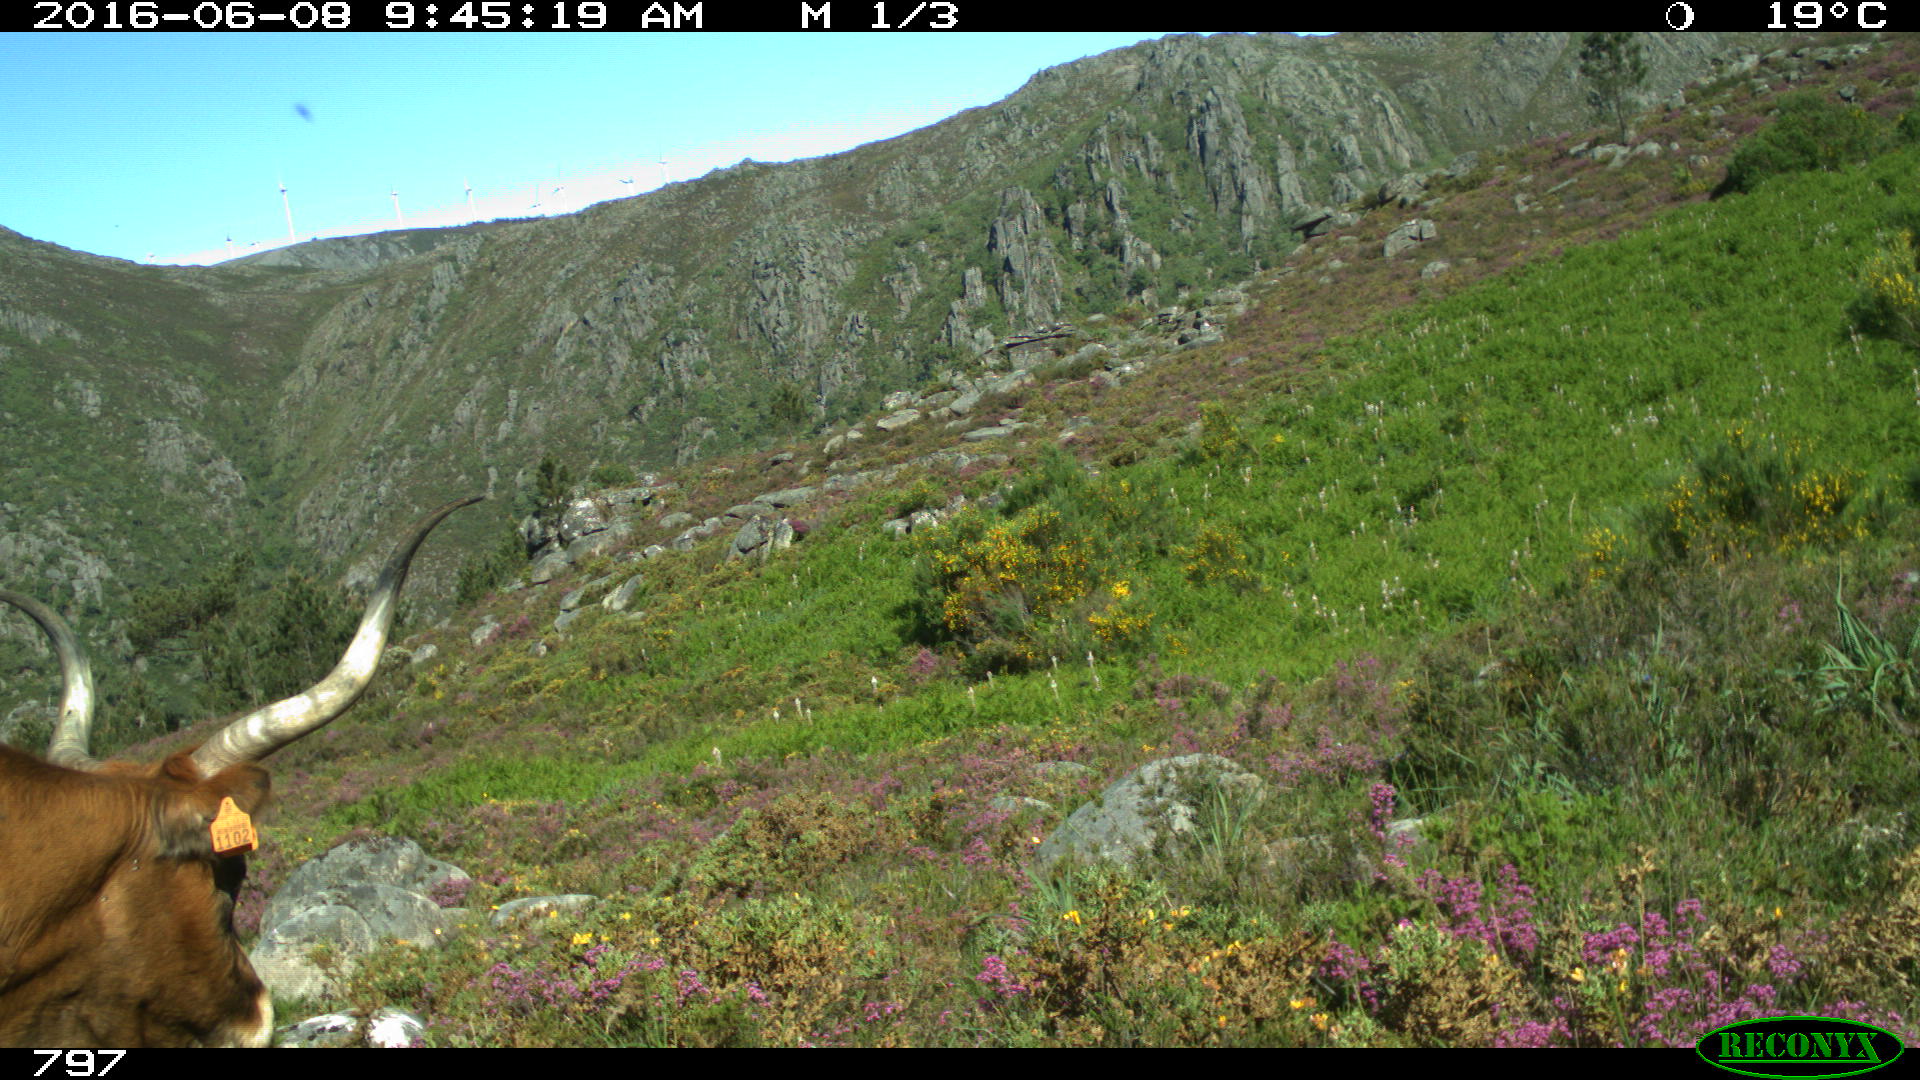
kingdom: Animalia
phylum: Chordata
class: Mammalia
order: Artiodactyla
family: Bovidae
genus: Bos
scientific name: Bos taurus
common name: Domesticated cattle
